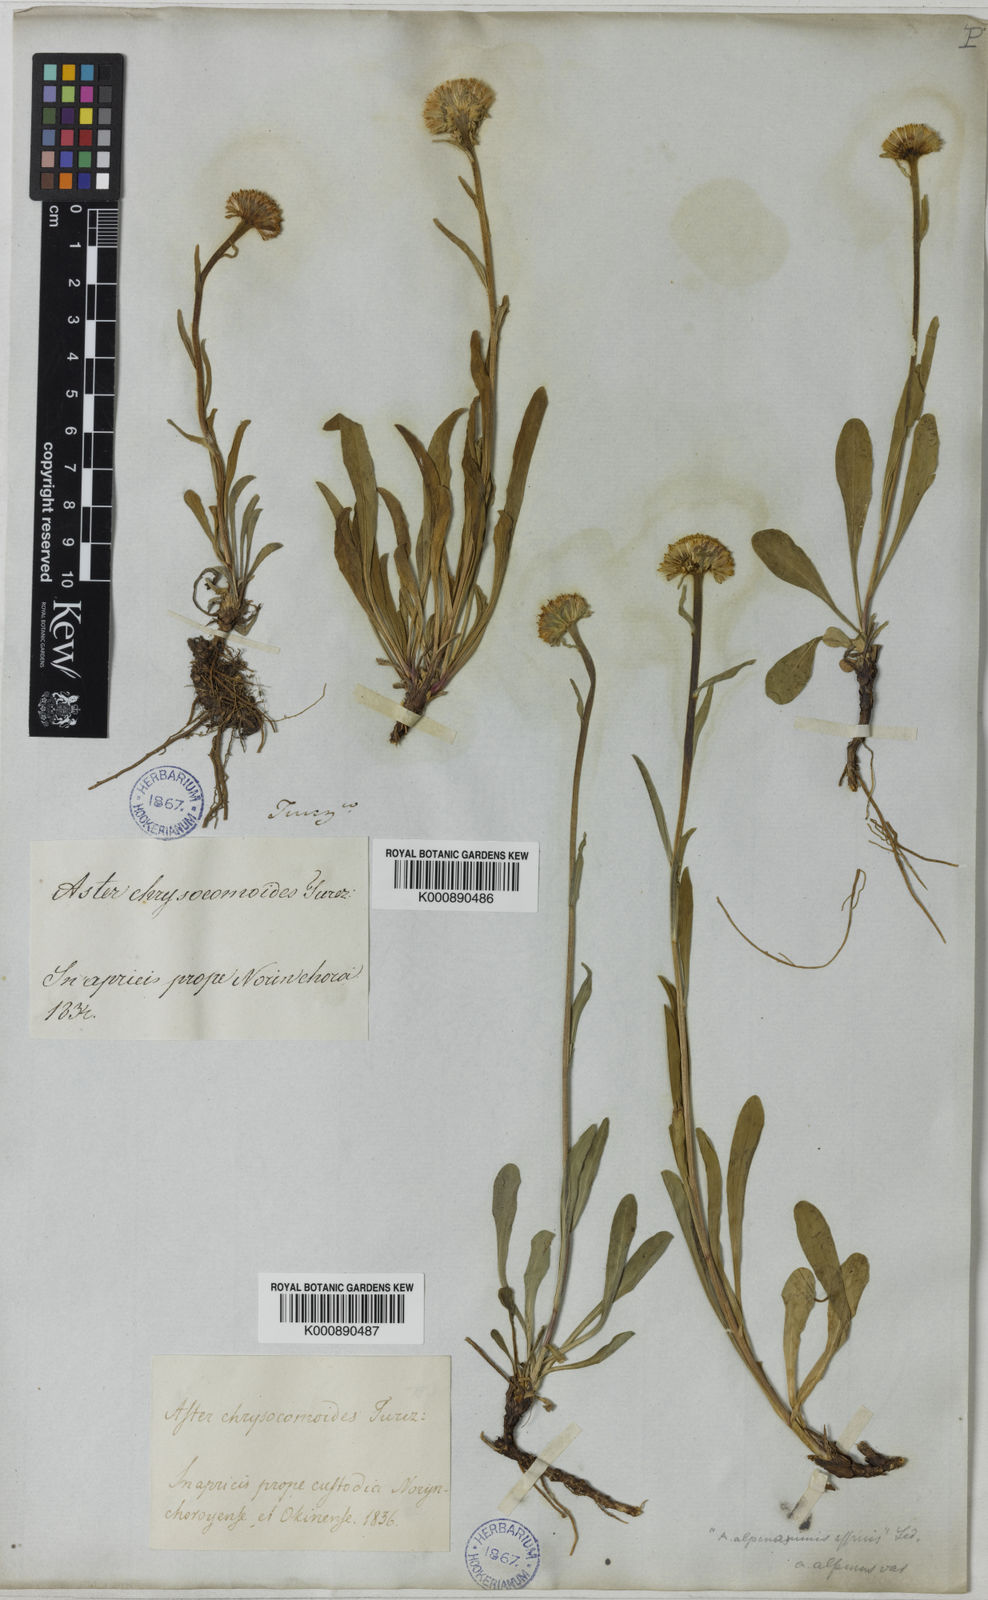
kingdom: Plantae
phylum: Tracheophyta
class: Magnoliopsida
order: Asterales
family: Asteraceae
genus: Aster
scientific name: Aster
